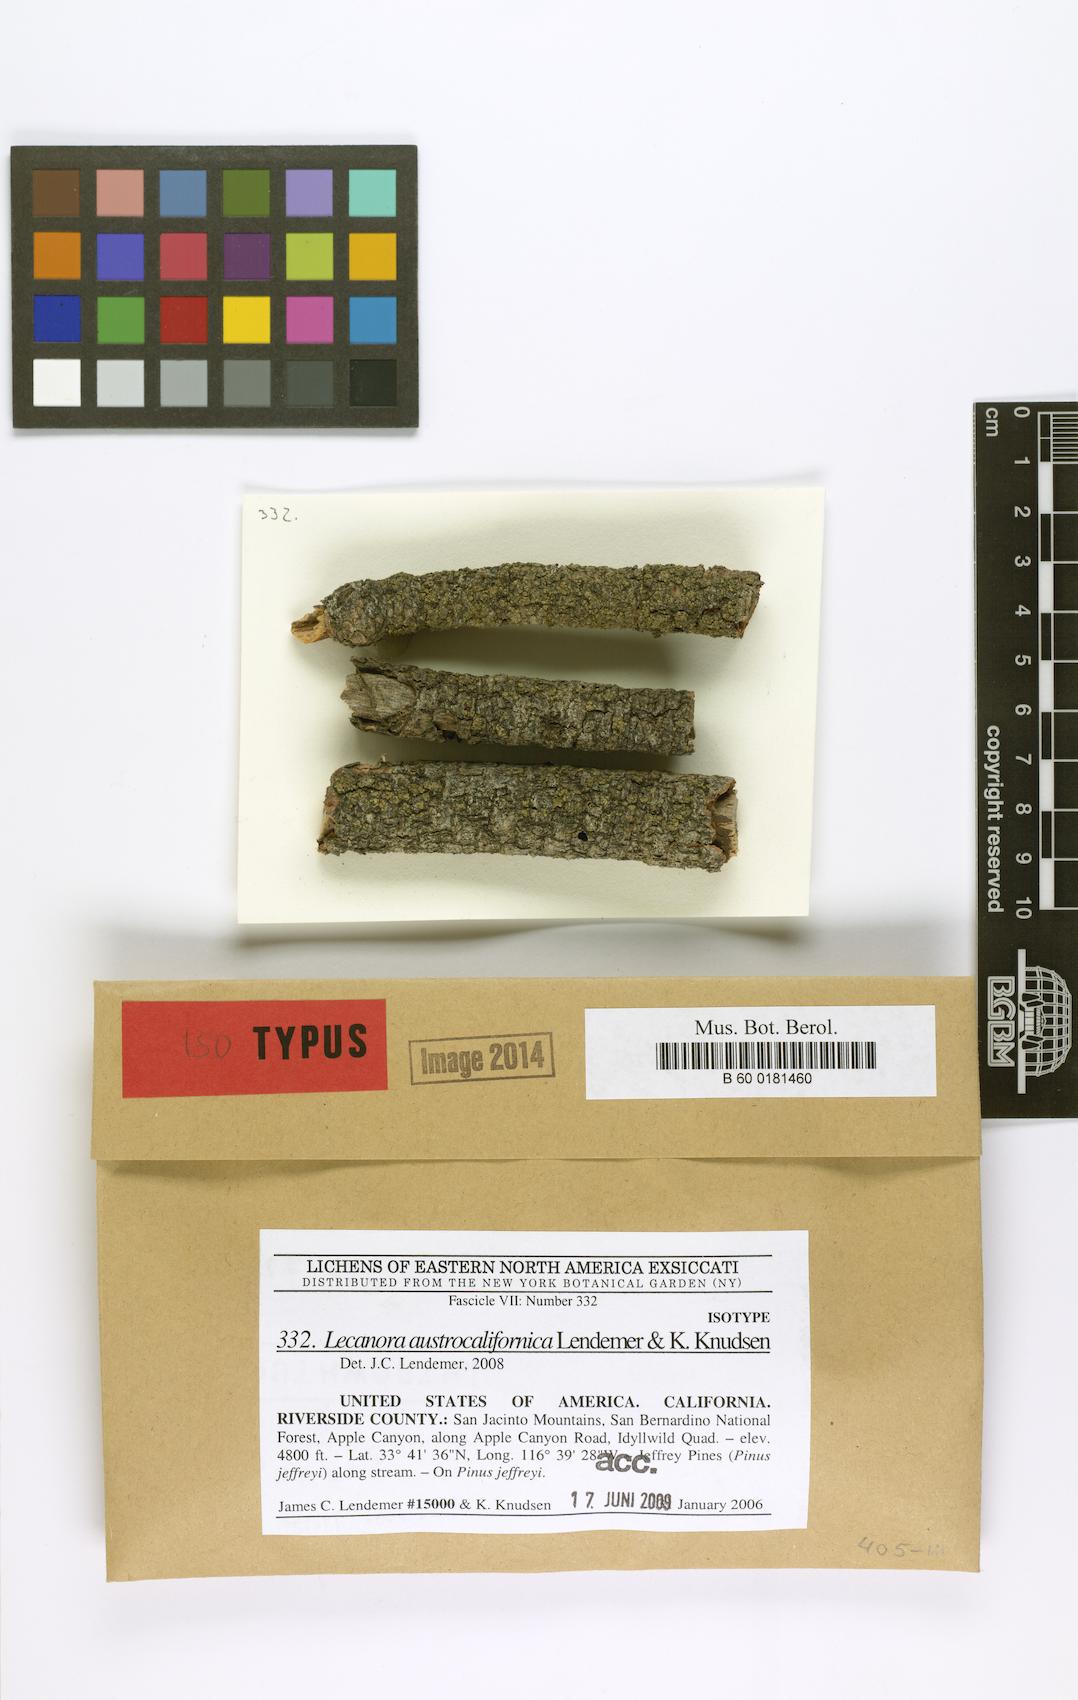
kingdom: Fungi
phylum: Ascomycota
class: Lecanoromycetes
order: Lecanorales
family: Lecanoraceae
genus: Lecanora
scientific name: Lecanora austrocalifornica
